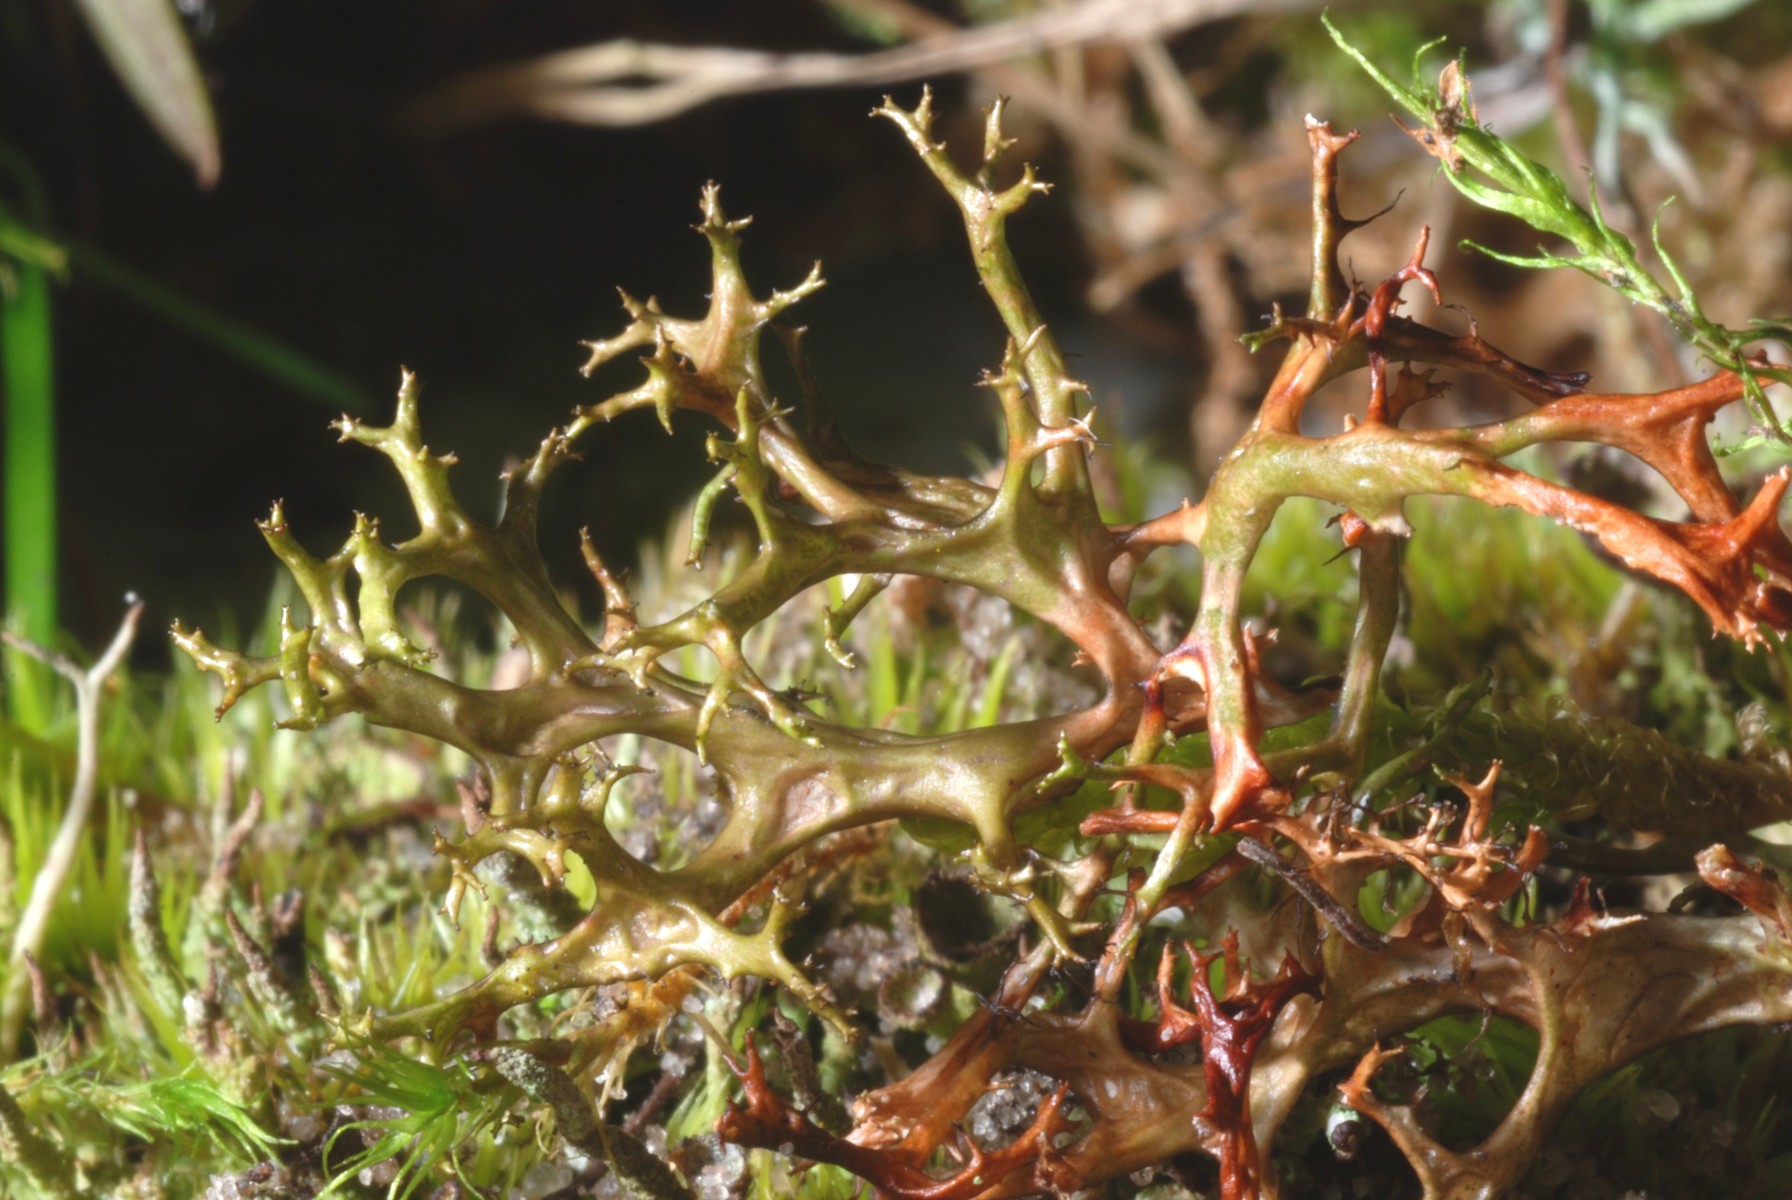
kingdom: Fungi
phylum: Ascomycota
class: Lecanoromycetes
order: Lecanorales
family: Parmeliaceae
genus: Cetraria
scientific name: Cetraria aculeata
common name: grubet tjørnelav
